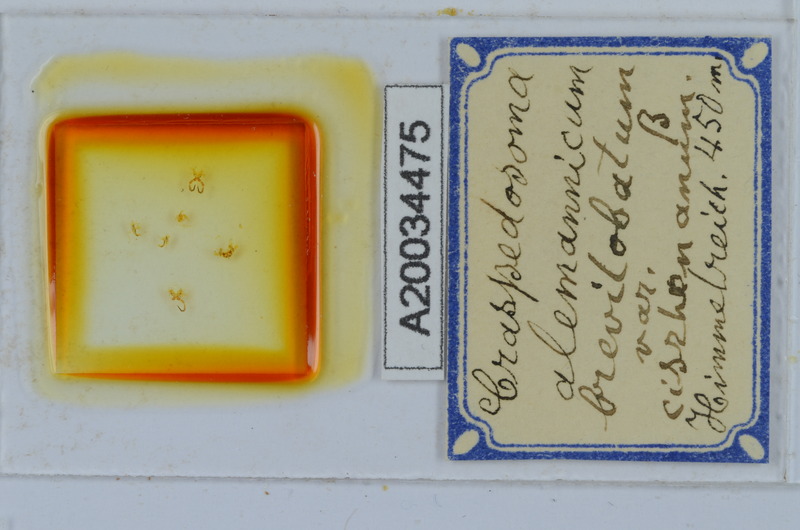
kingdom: Animalia
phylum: Arthropoda
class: Diplopoda
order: Chordeumatida
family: Craspedosomatidae
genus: Craspedosoma
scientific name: Craspedosoma rawlinsii
